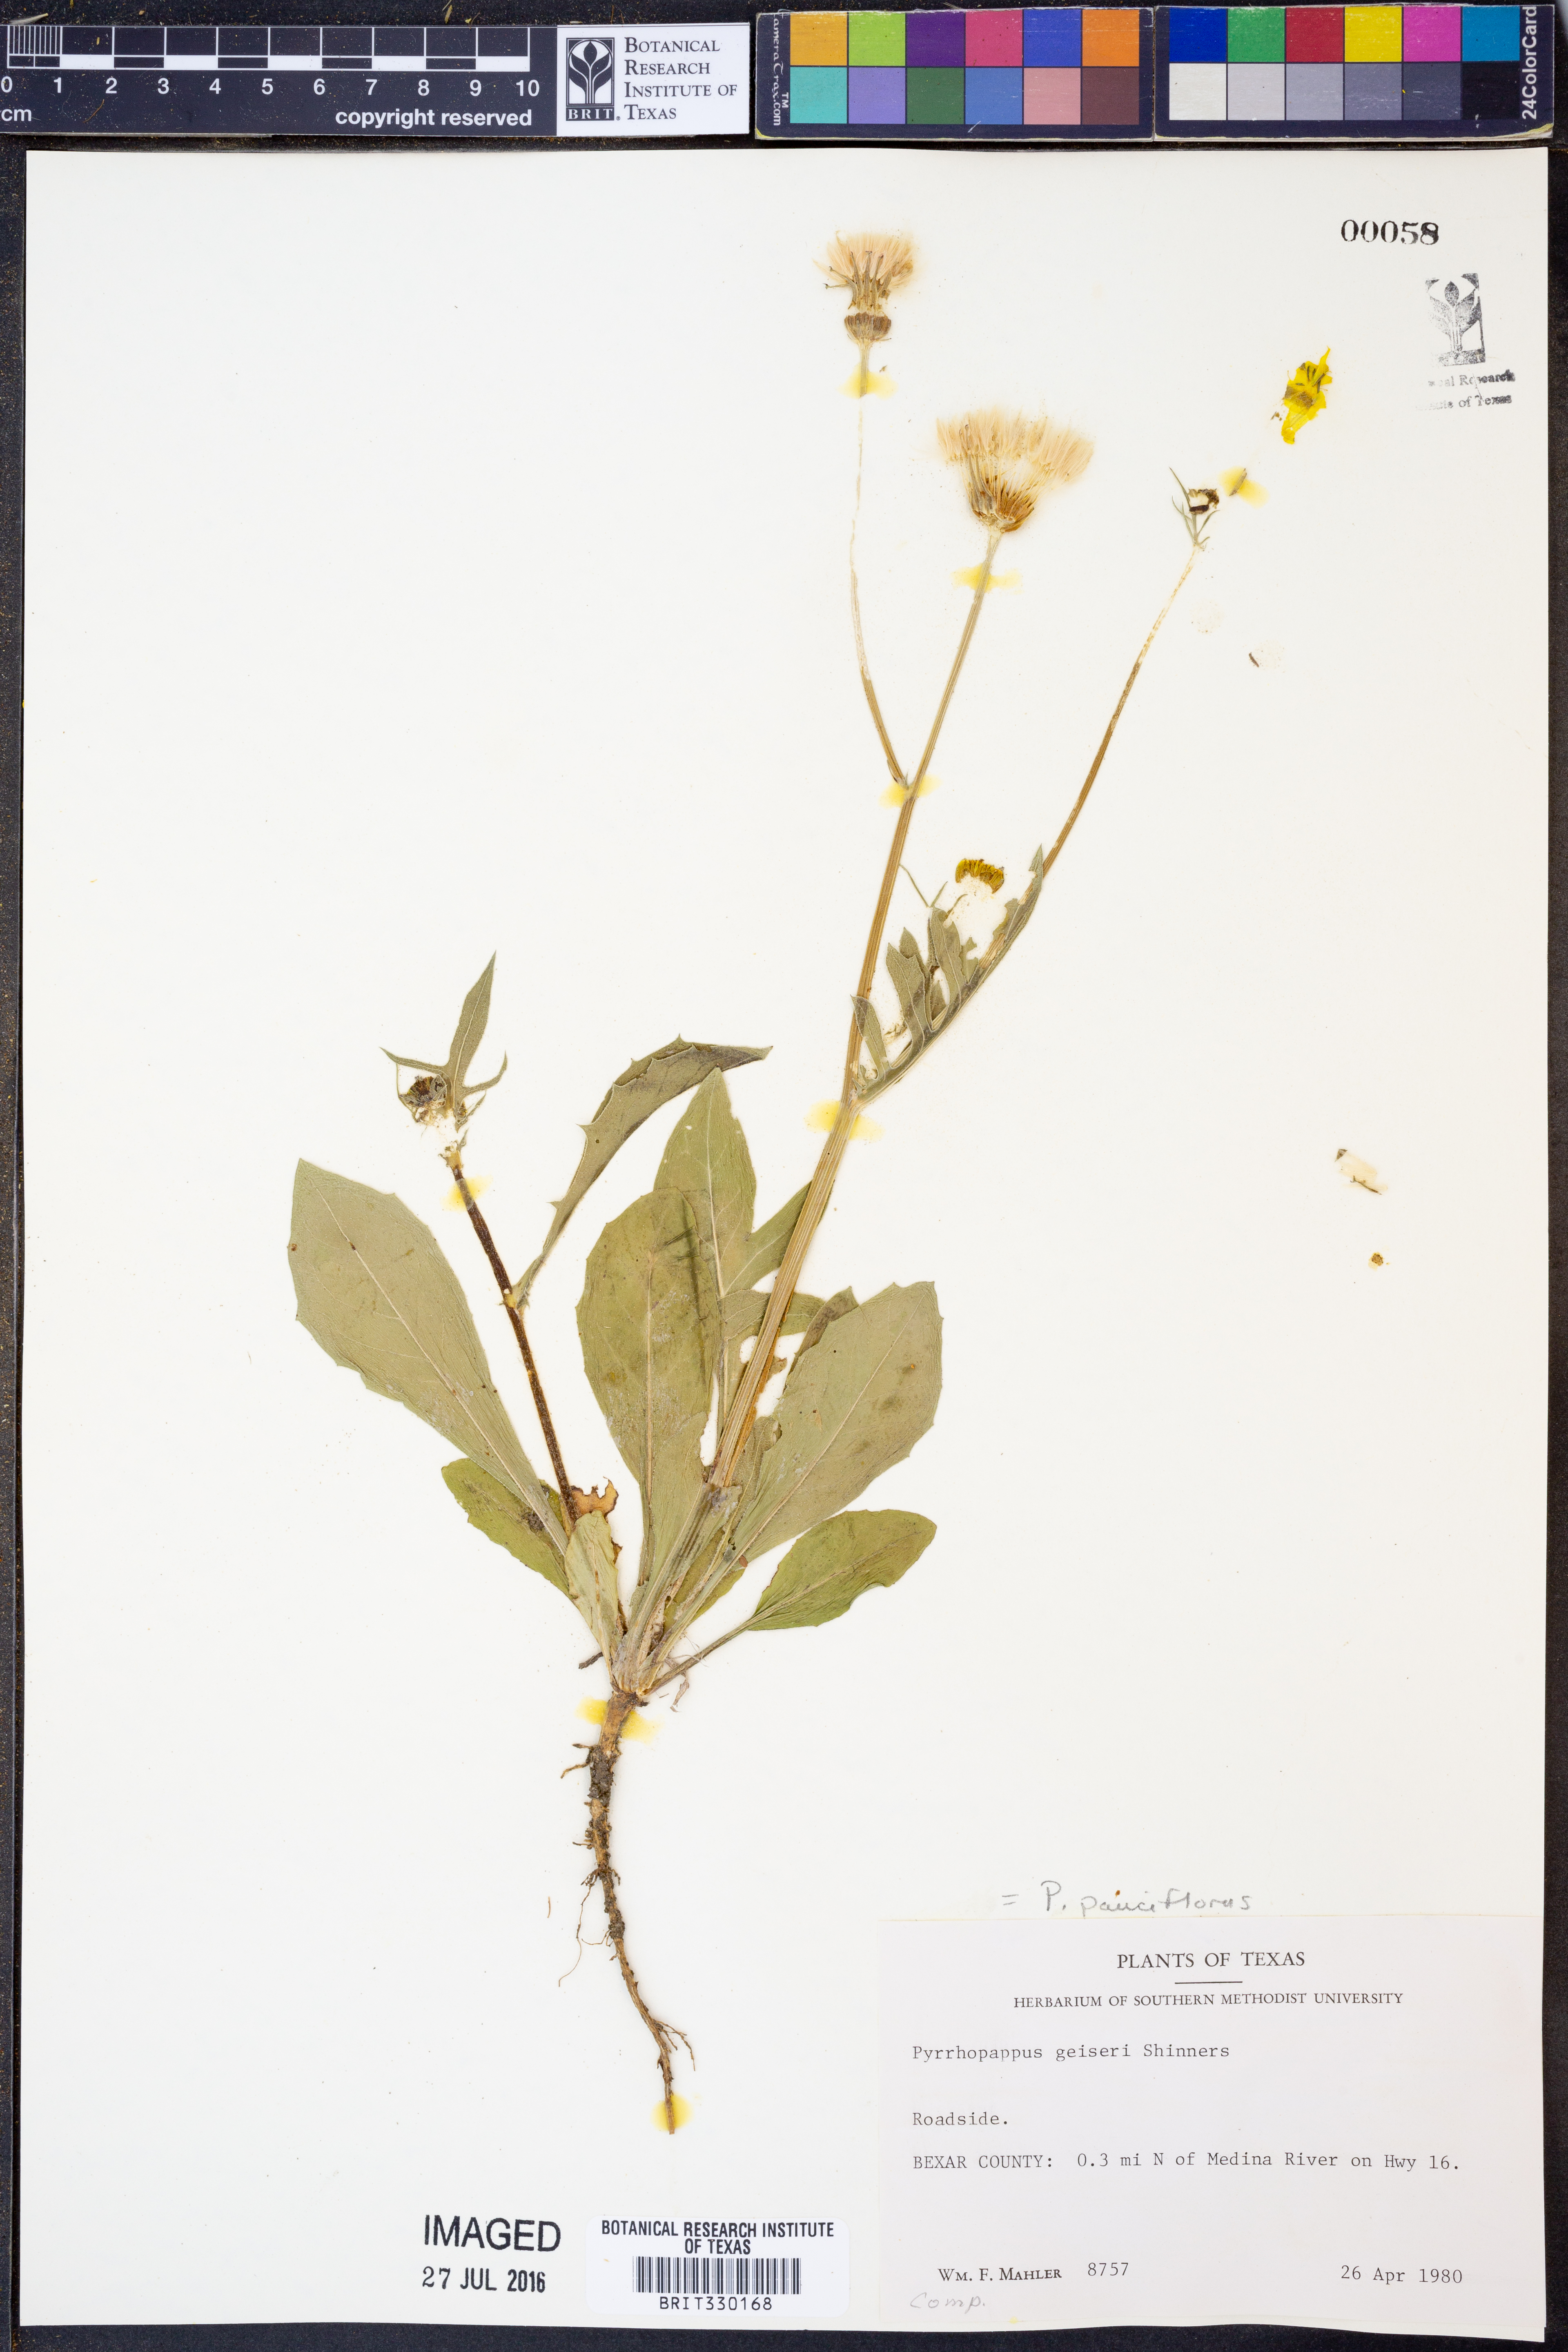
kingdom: Plantae
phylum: Tracheophyta
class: Magnoliopsida
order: Asterales
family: Asteraceae
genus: Pyrrhopappus
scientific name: Pyrrhopappus pauciflorus
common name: Texas false dandelion
